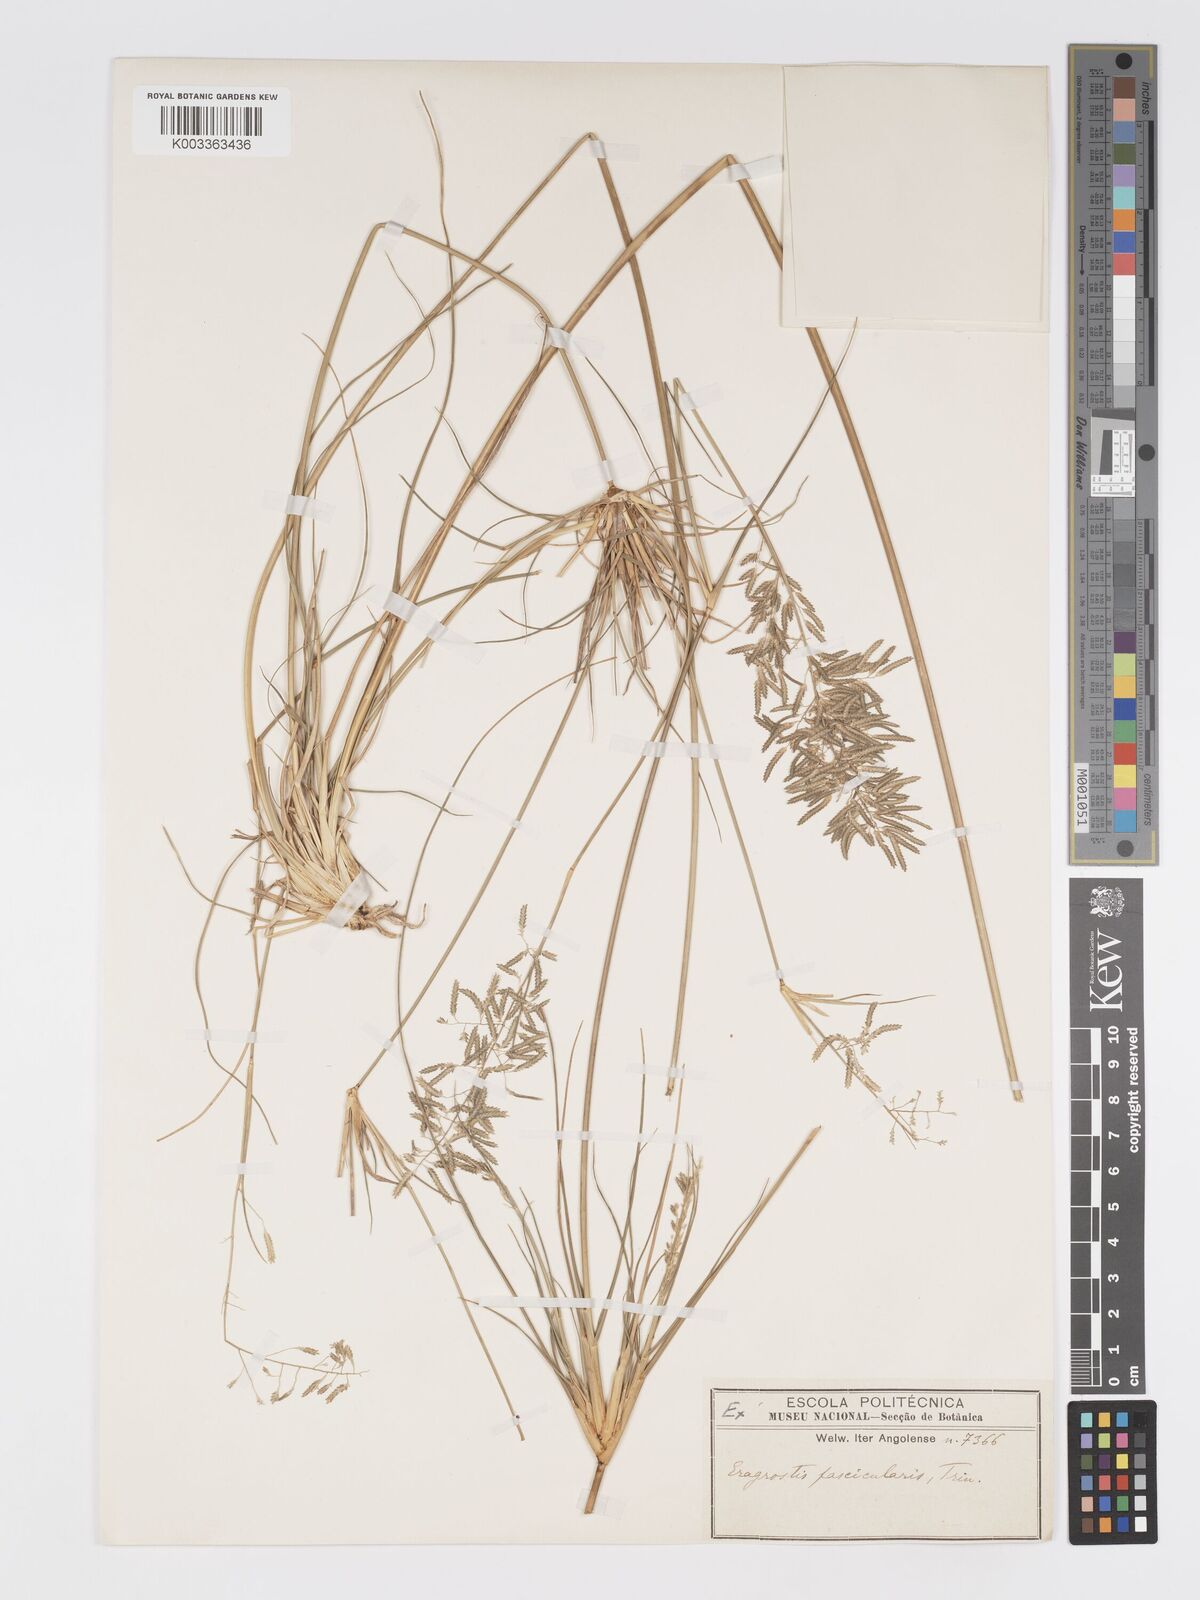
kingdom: Plantae
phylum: Tracheophyta
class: Liliopsida
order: Poales
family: Poaceae
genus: Eragrostis
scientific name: Eragrostis prolifera
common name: Dominican lovegrass
